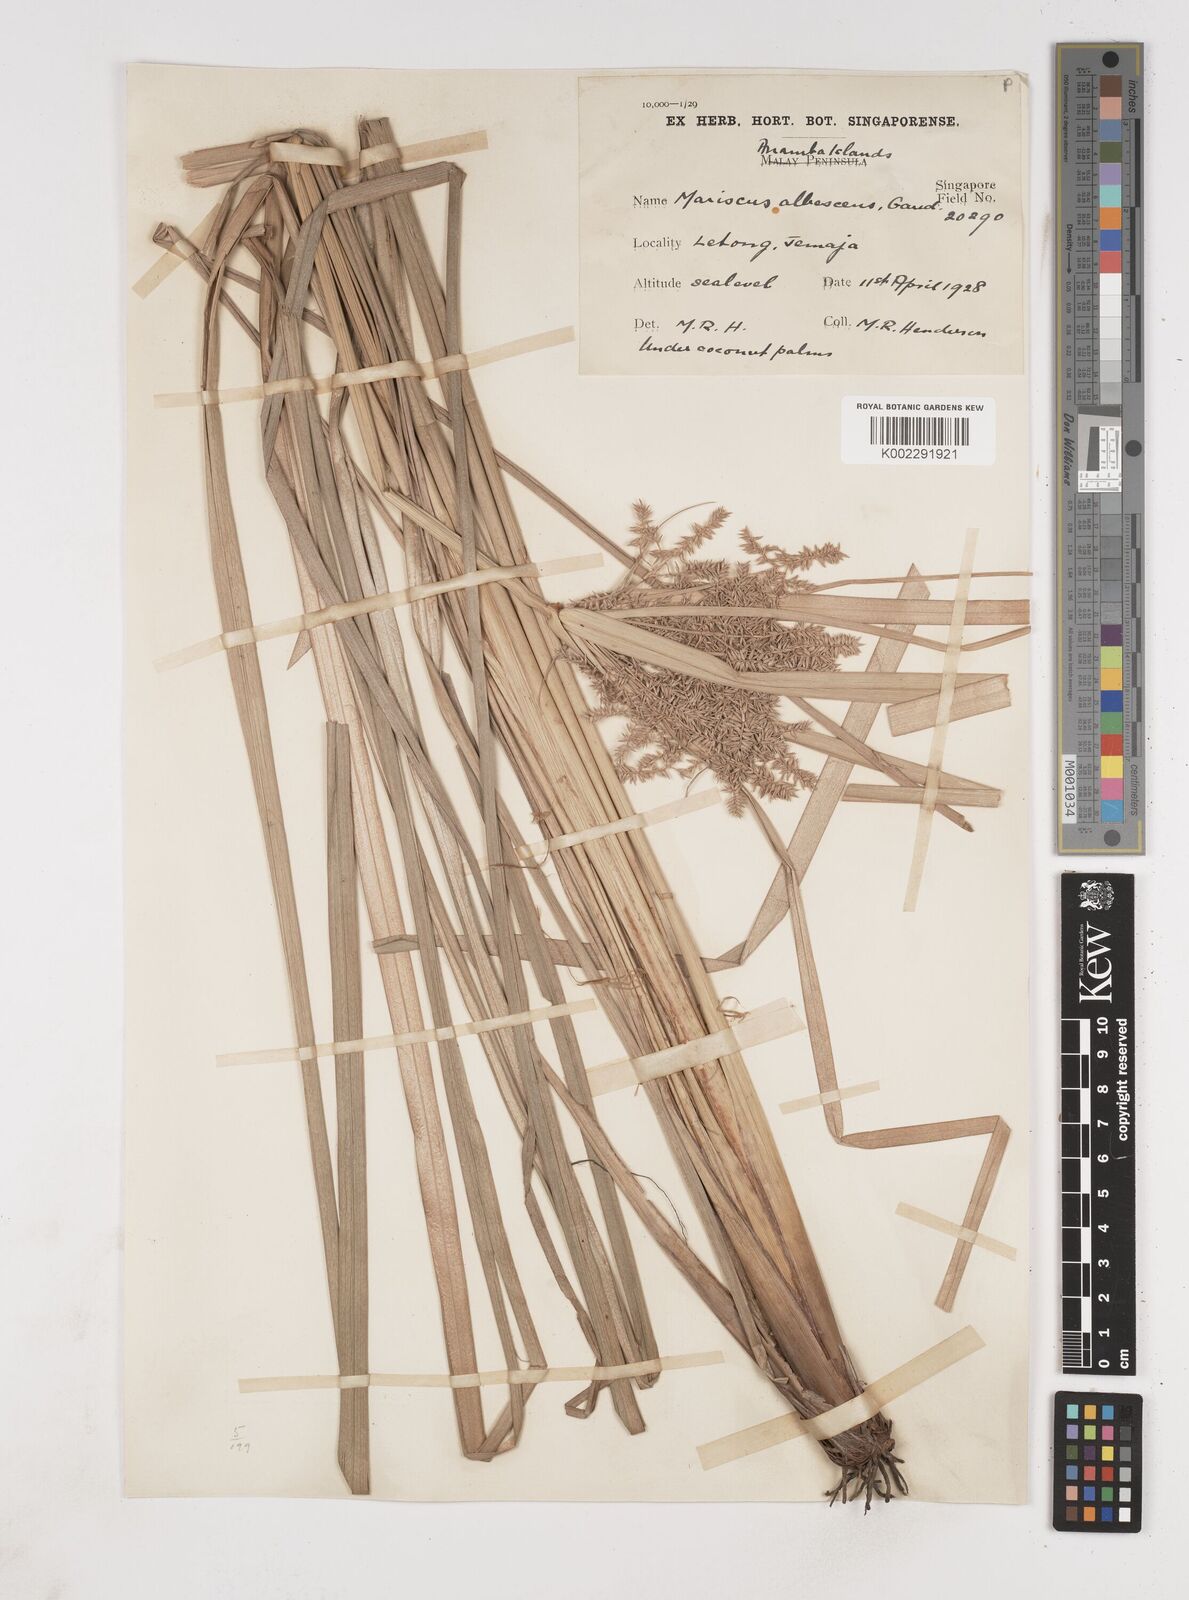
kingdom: Plantae
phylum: Tracheophyta
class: Liliopsida
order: Poales
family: Cyperaceae
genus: Cyperus
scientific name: Cyperus javanicus
